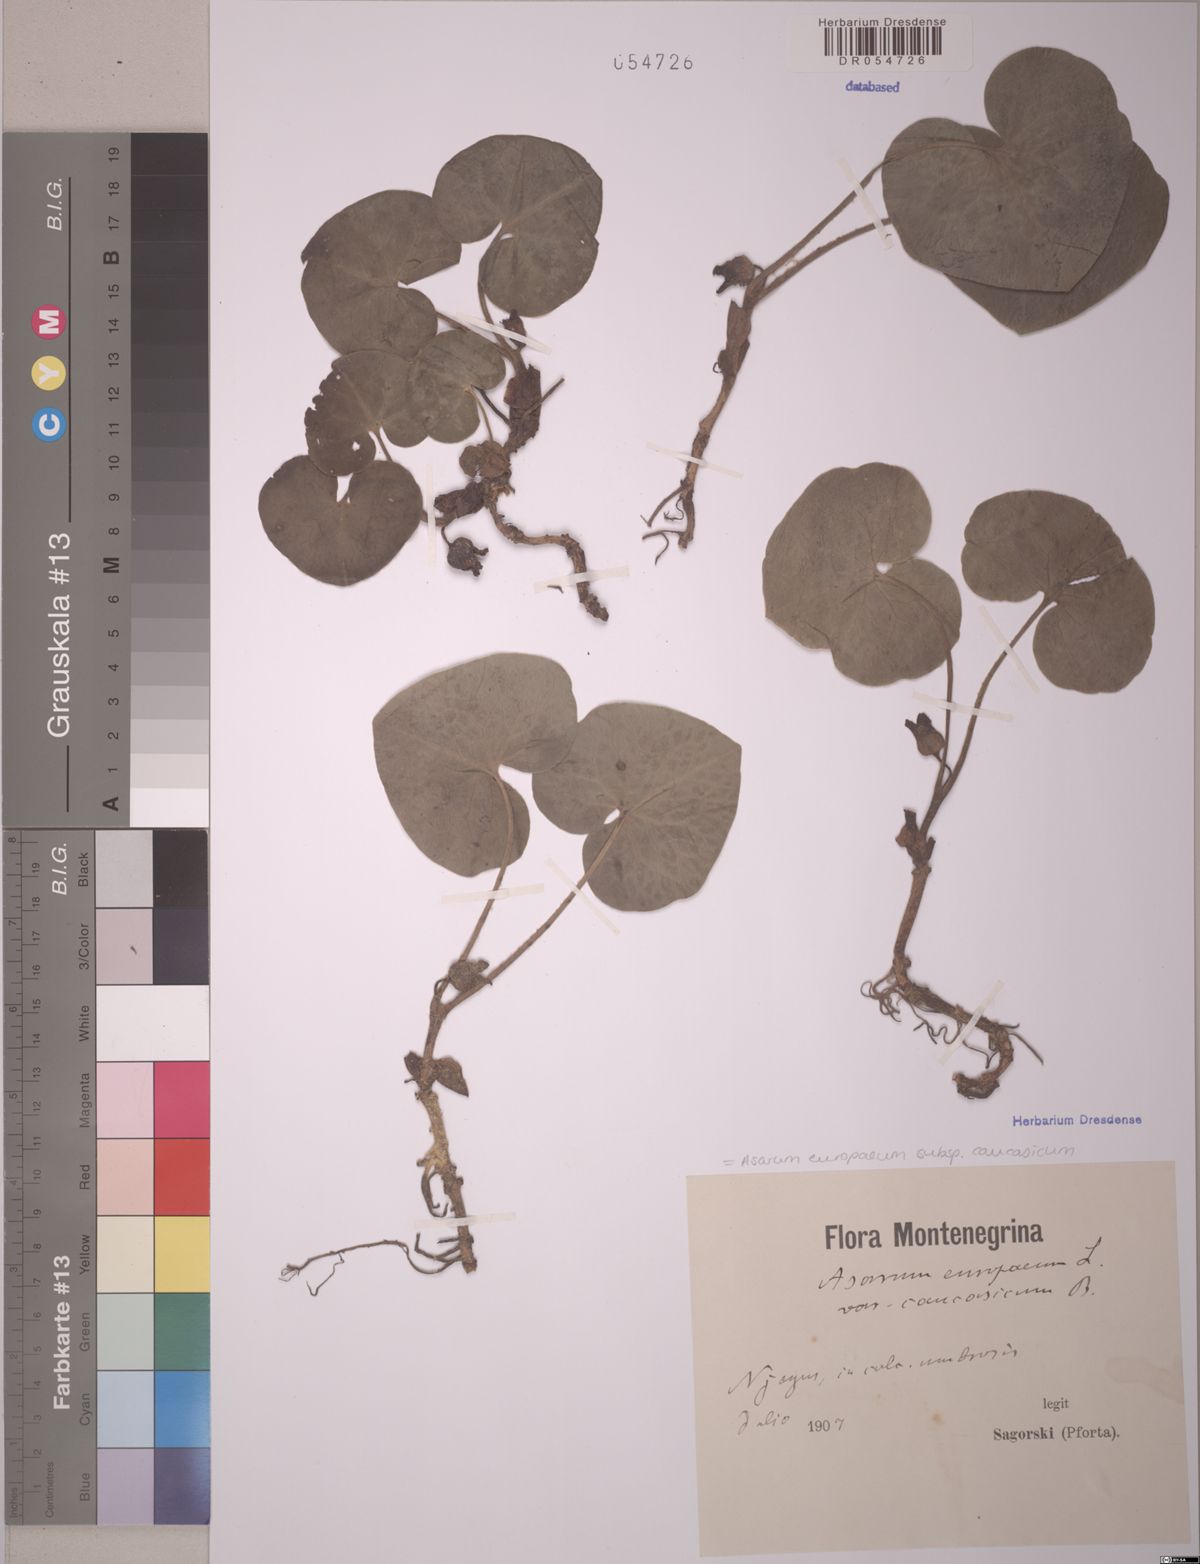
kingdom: Plantae
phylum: Tracheophyta
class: Magnoliopsida
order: Piperales
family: Aristolochiaceae
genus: Asarum
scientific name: Asarum europaeum
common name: Asarabacca
